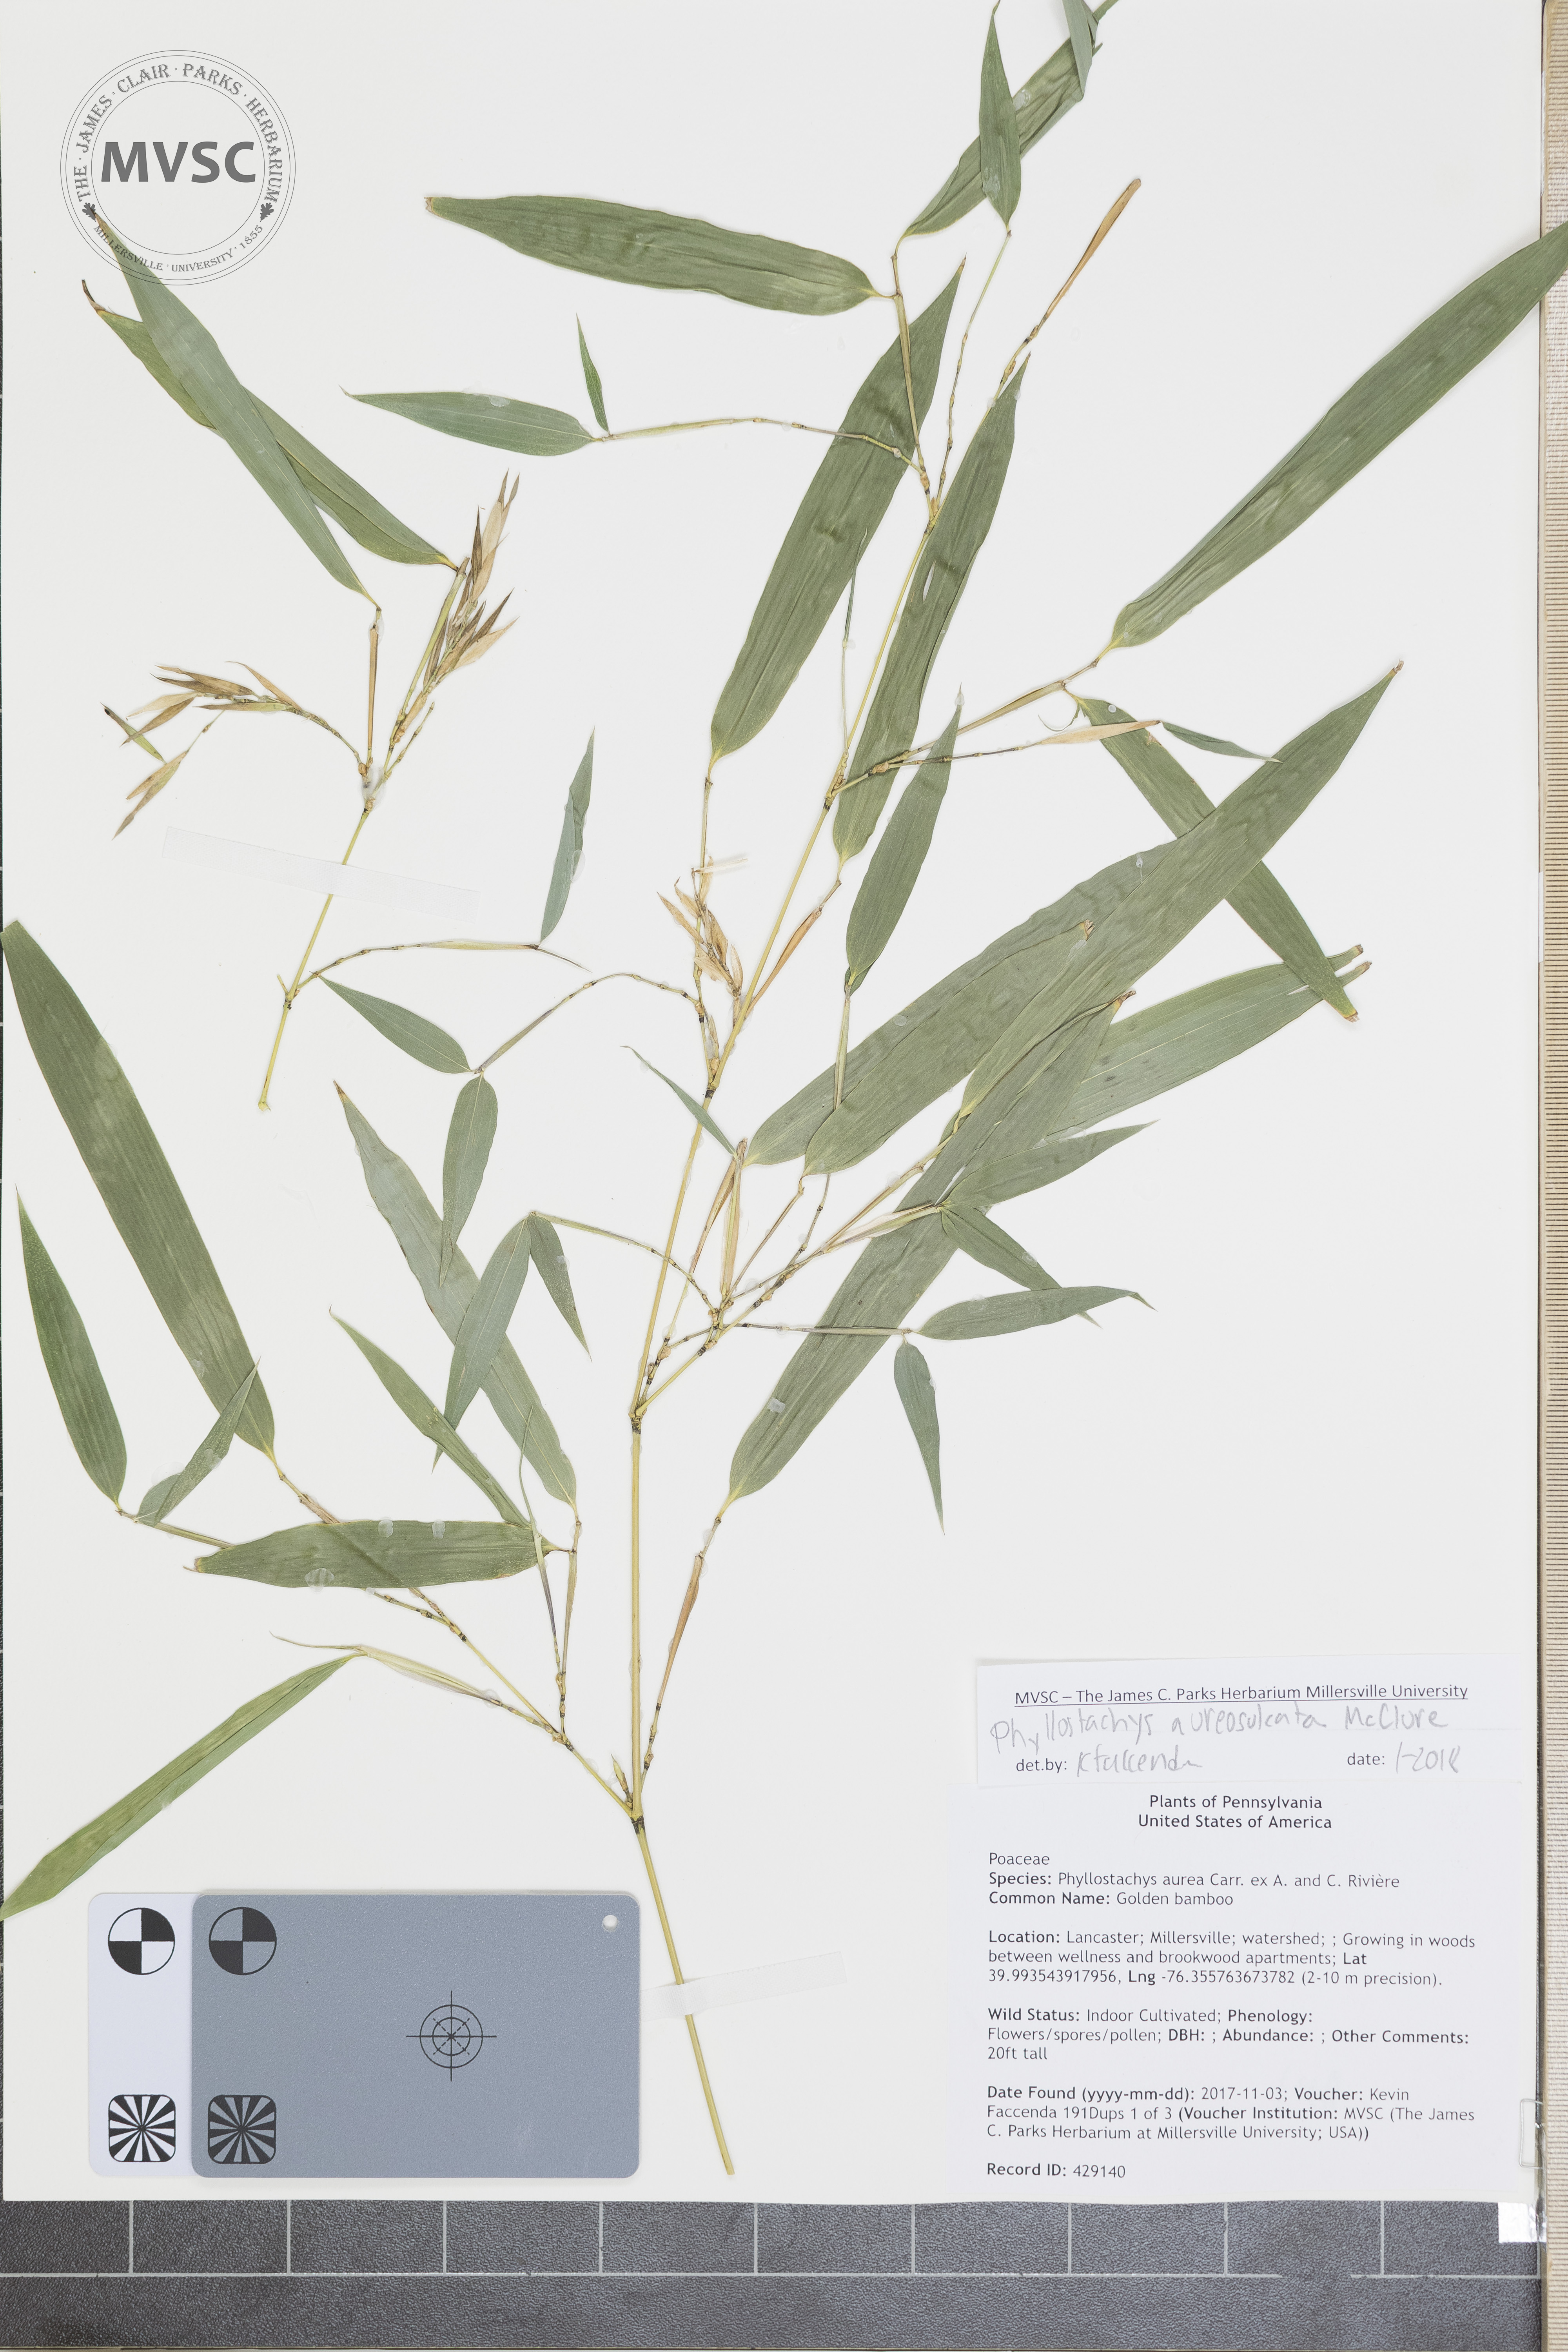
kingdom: Plantae
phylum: Tracheophyta
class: Liliopsida
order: Poales
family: Poaceae
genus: Phyllostachys
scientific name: Phyllostachys aureosulcata
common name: Bamboo
